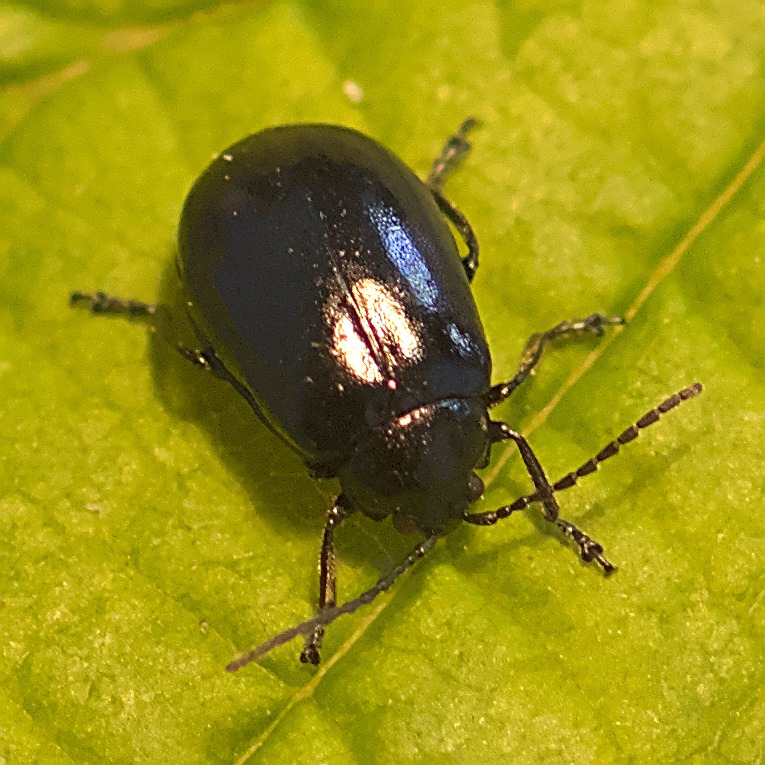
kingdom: Animalia
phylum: Arthropoda
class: Insecta
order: Coleoptera
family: Chrysomelidae
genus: Agelastica
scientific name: Agelastica alni
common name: Ellebladbille
